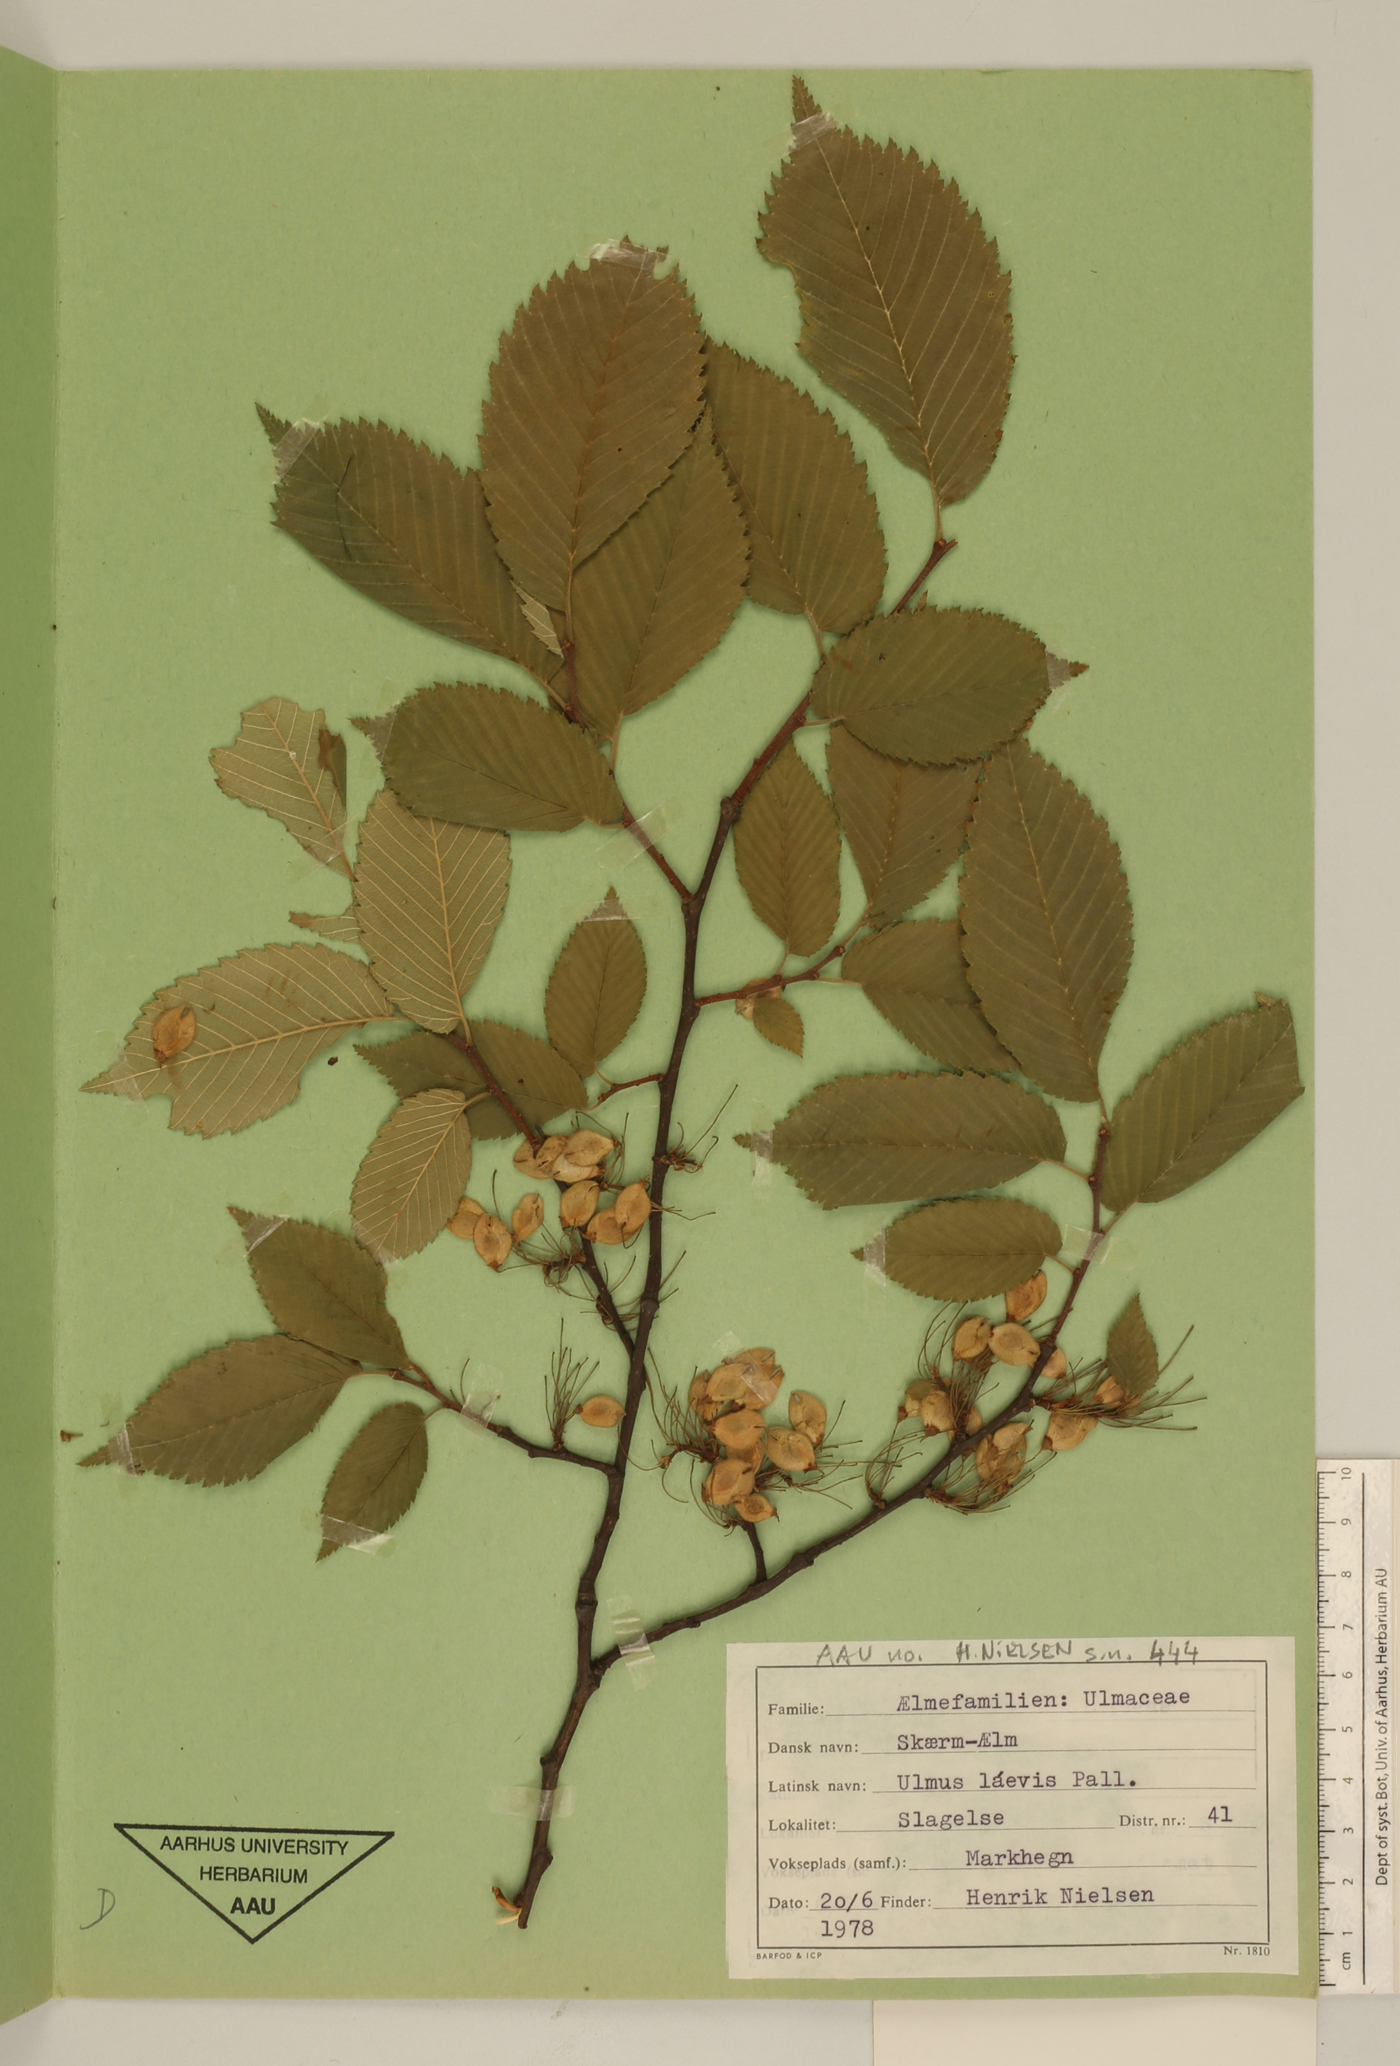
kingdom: Plantae
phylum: Tracheophyta
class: Magnoliopsida
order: Rosales
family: Ulmaceae
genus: Ulmus
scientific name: Ulmus laevis
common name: European white-elm
